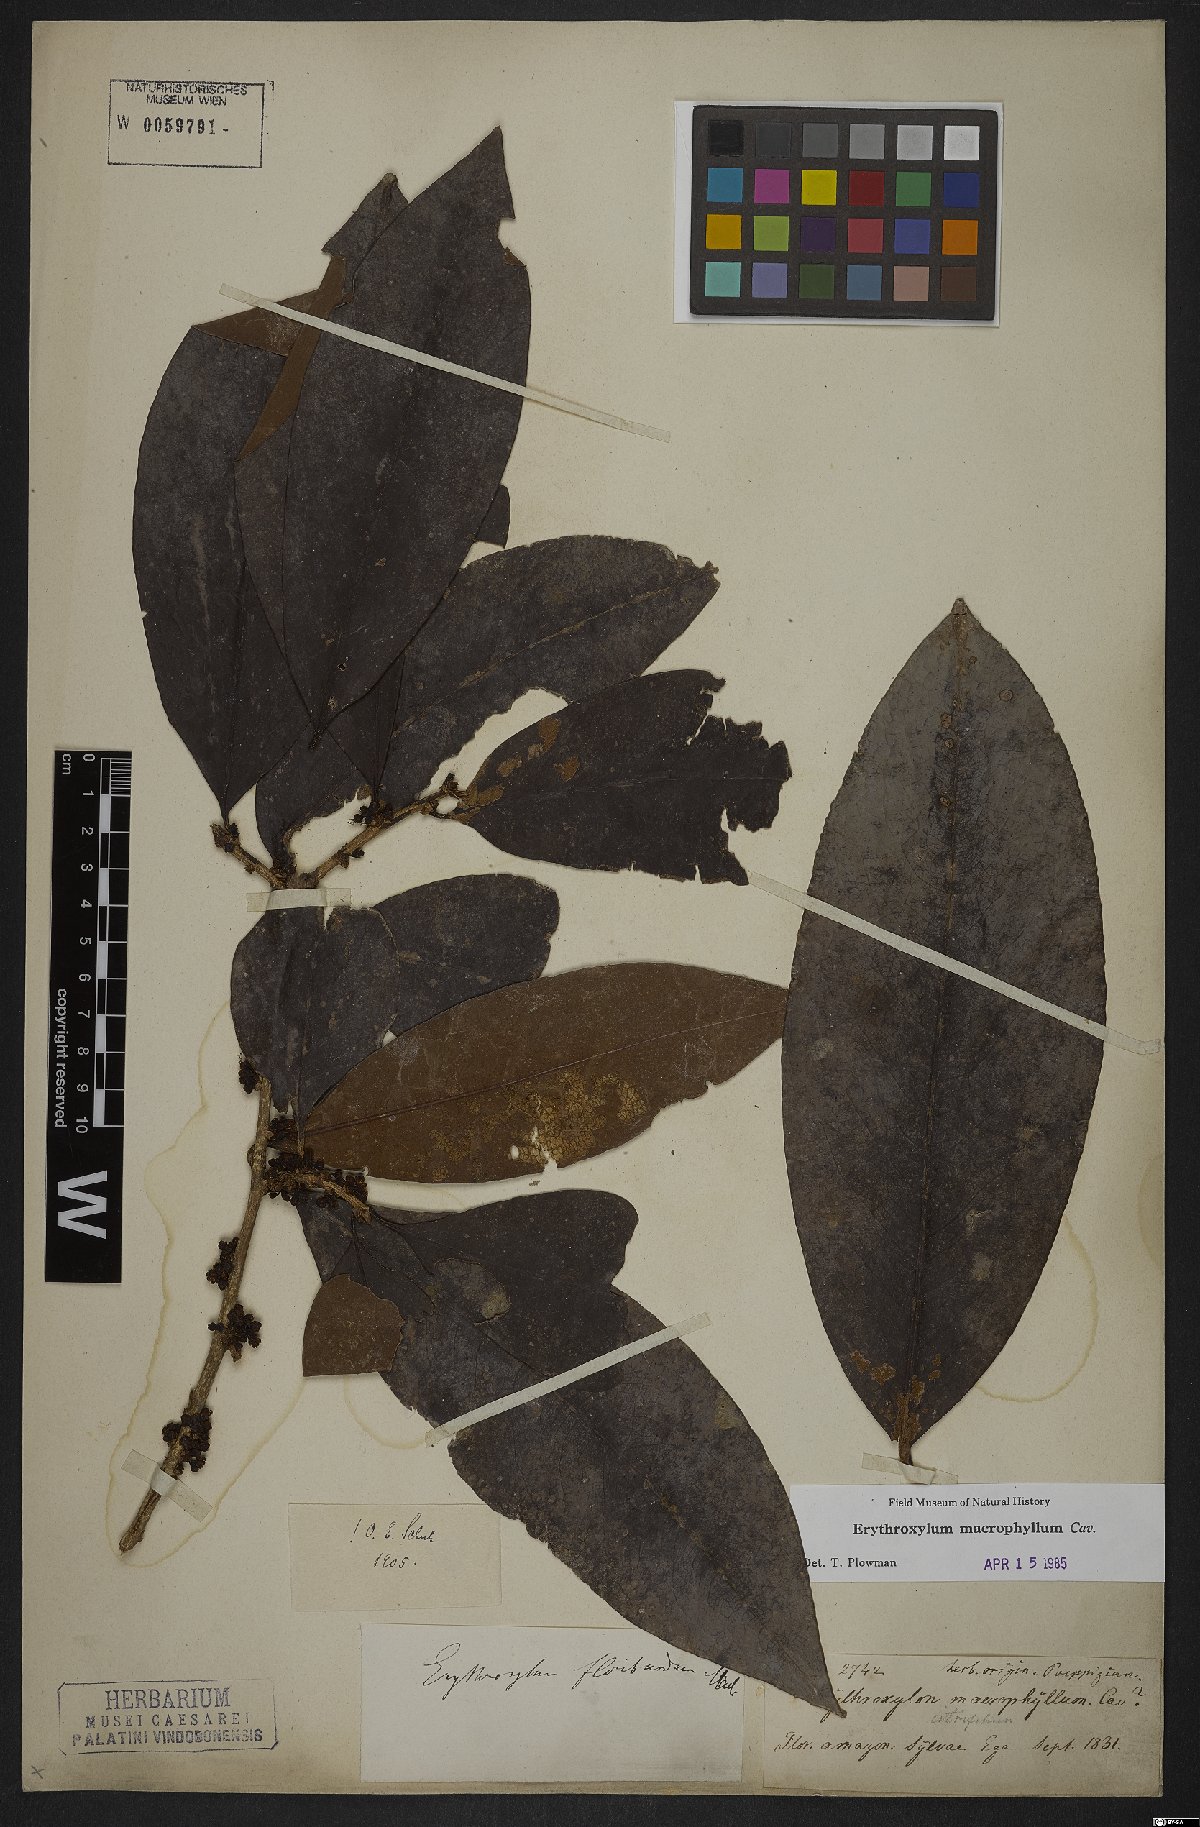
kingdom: Plantae
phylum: Tracheophyta
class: Magnoliopsida
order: Malpighiales
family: Erythroxylaceae
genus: Erythroxylum
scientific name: Erythroxylum macrophyllum
